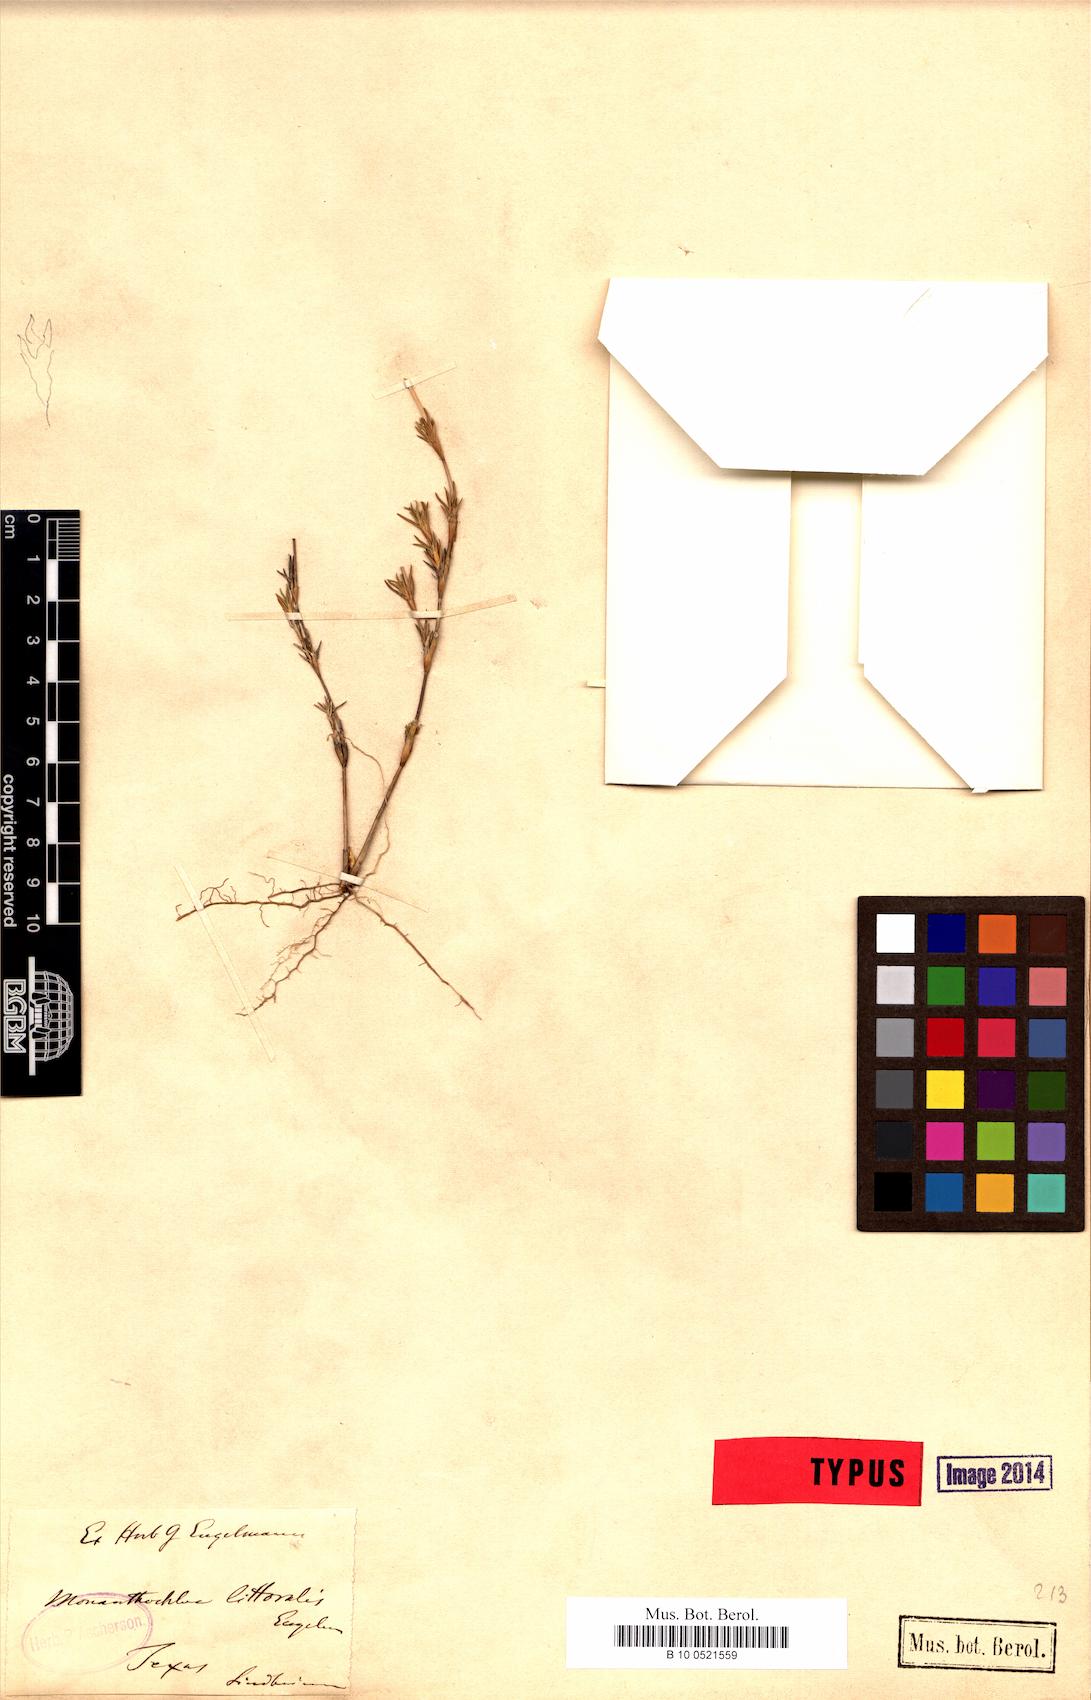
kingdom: Plantae
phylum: Tracheophyta
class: Liliopsida
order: Poales
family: Poaceae
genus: Distichlis
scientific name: Distichlis littoralis
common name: Shore grass
